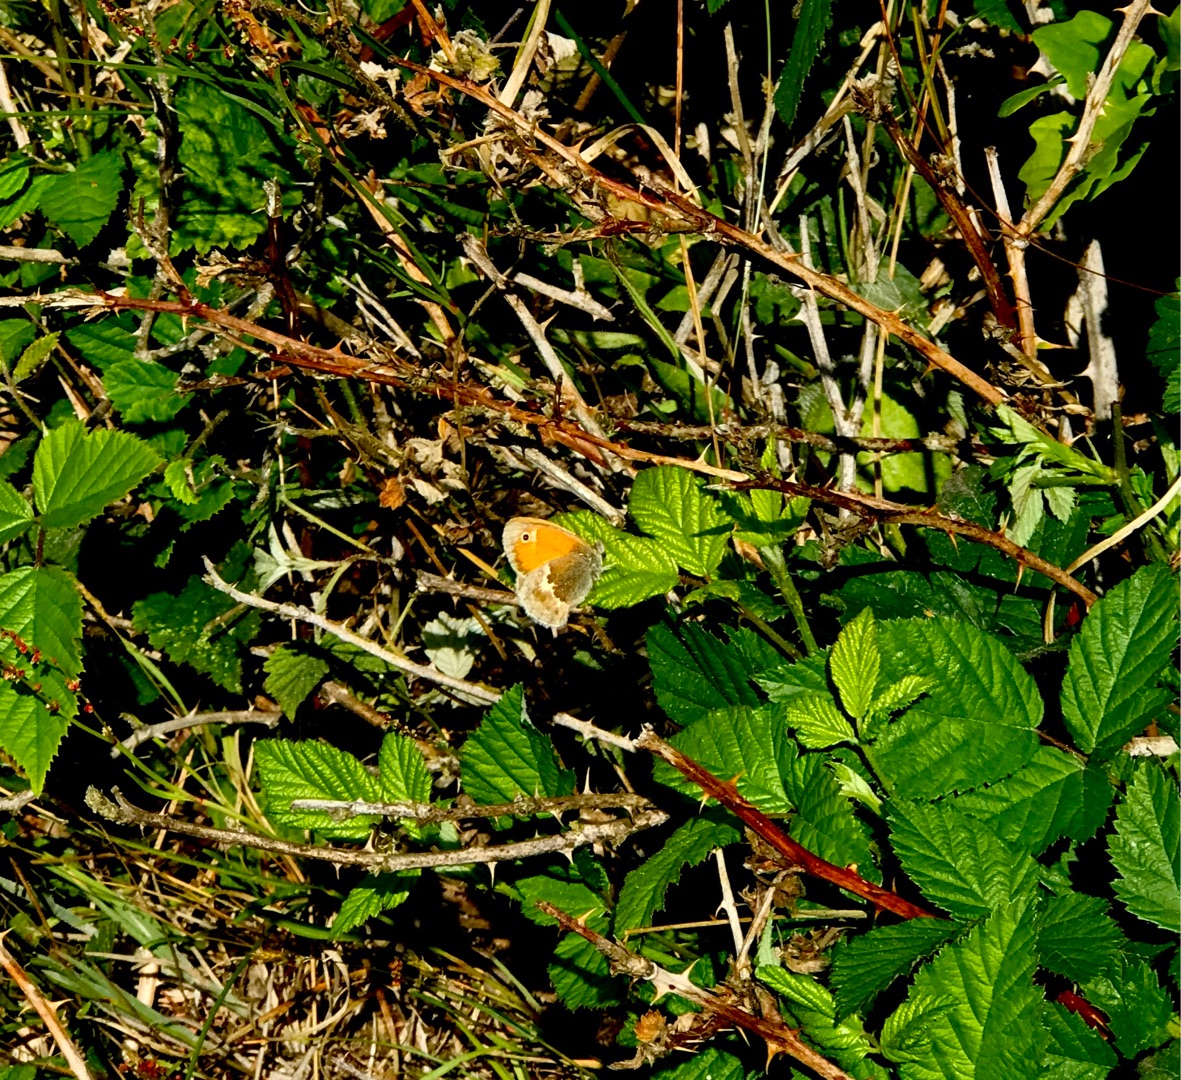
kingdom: Animalia
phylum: Arthropoda
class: Insecta
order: Lepidoptera
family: Nymphalidae
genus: Coenonympha
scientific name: Coenonympha pamphilus
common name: Okkergul randøje
